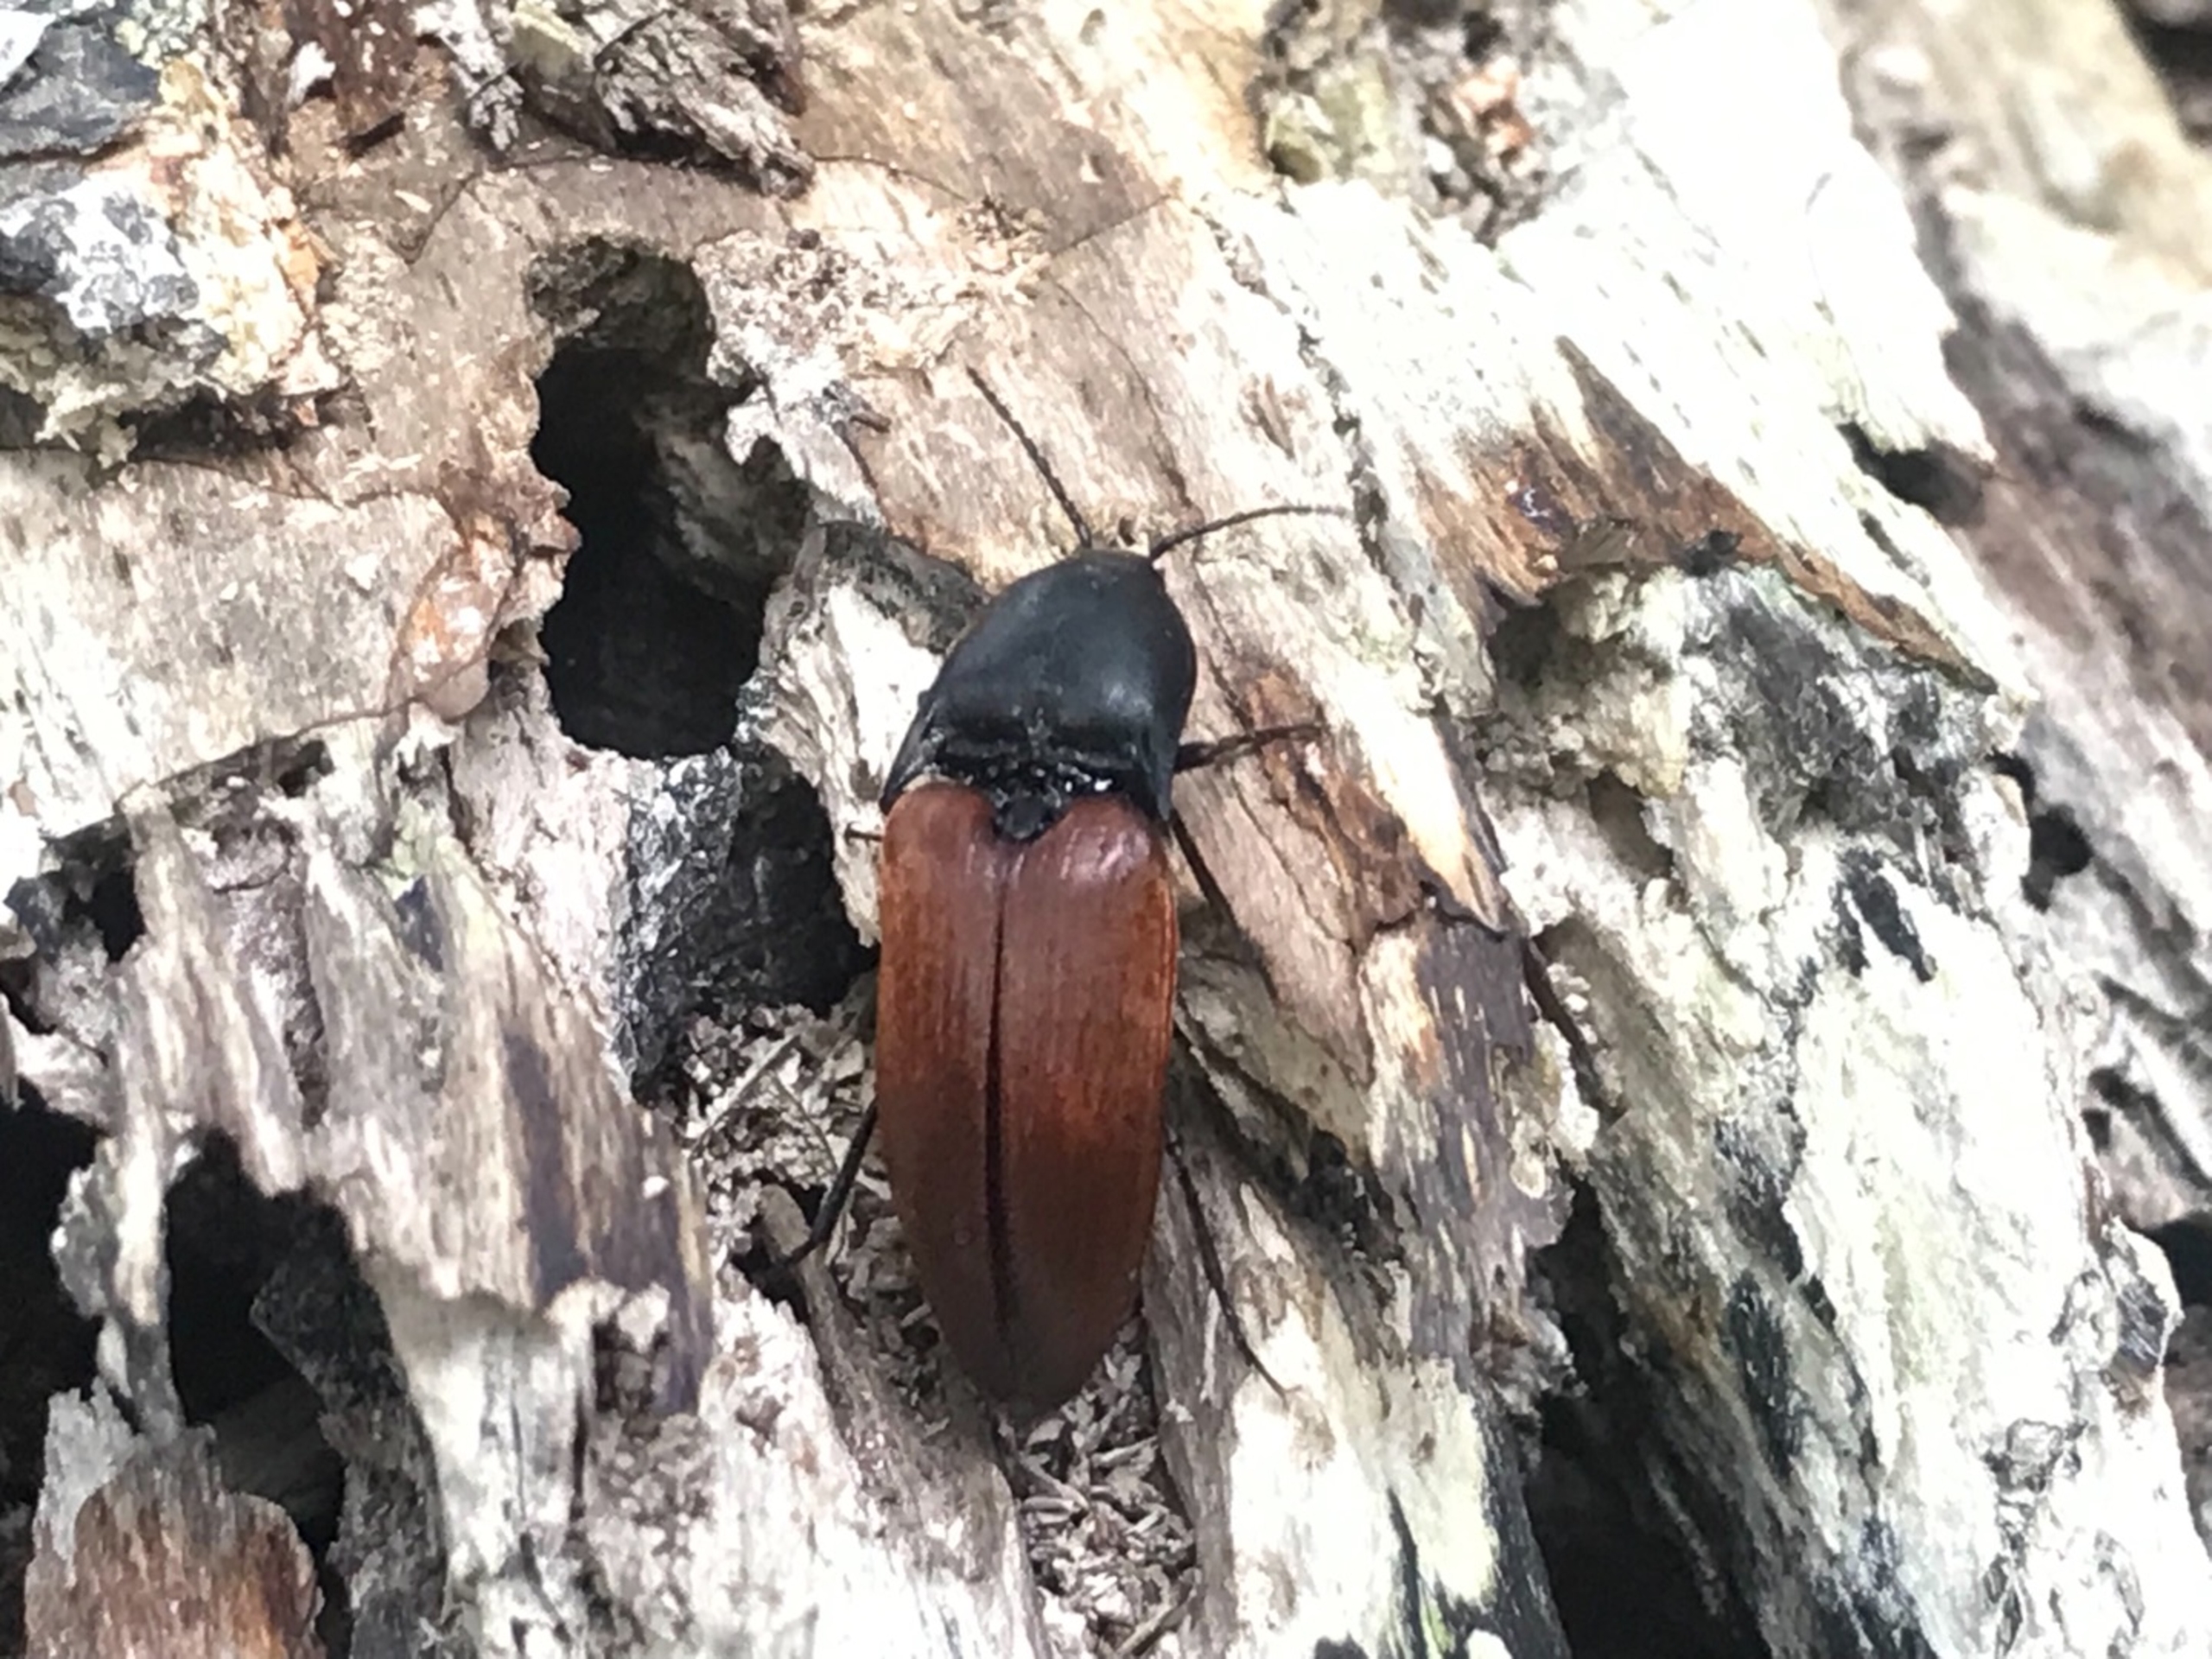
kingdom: Animalia
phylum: Arthropoda
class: Insecta
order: Coleoptera
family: Elateridae
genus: Elater
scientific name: Elater ferrugineus
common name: Jættesmælder
